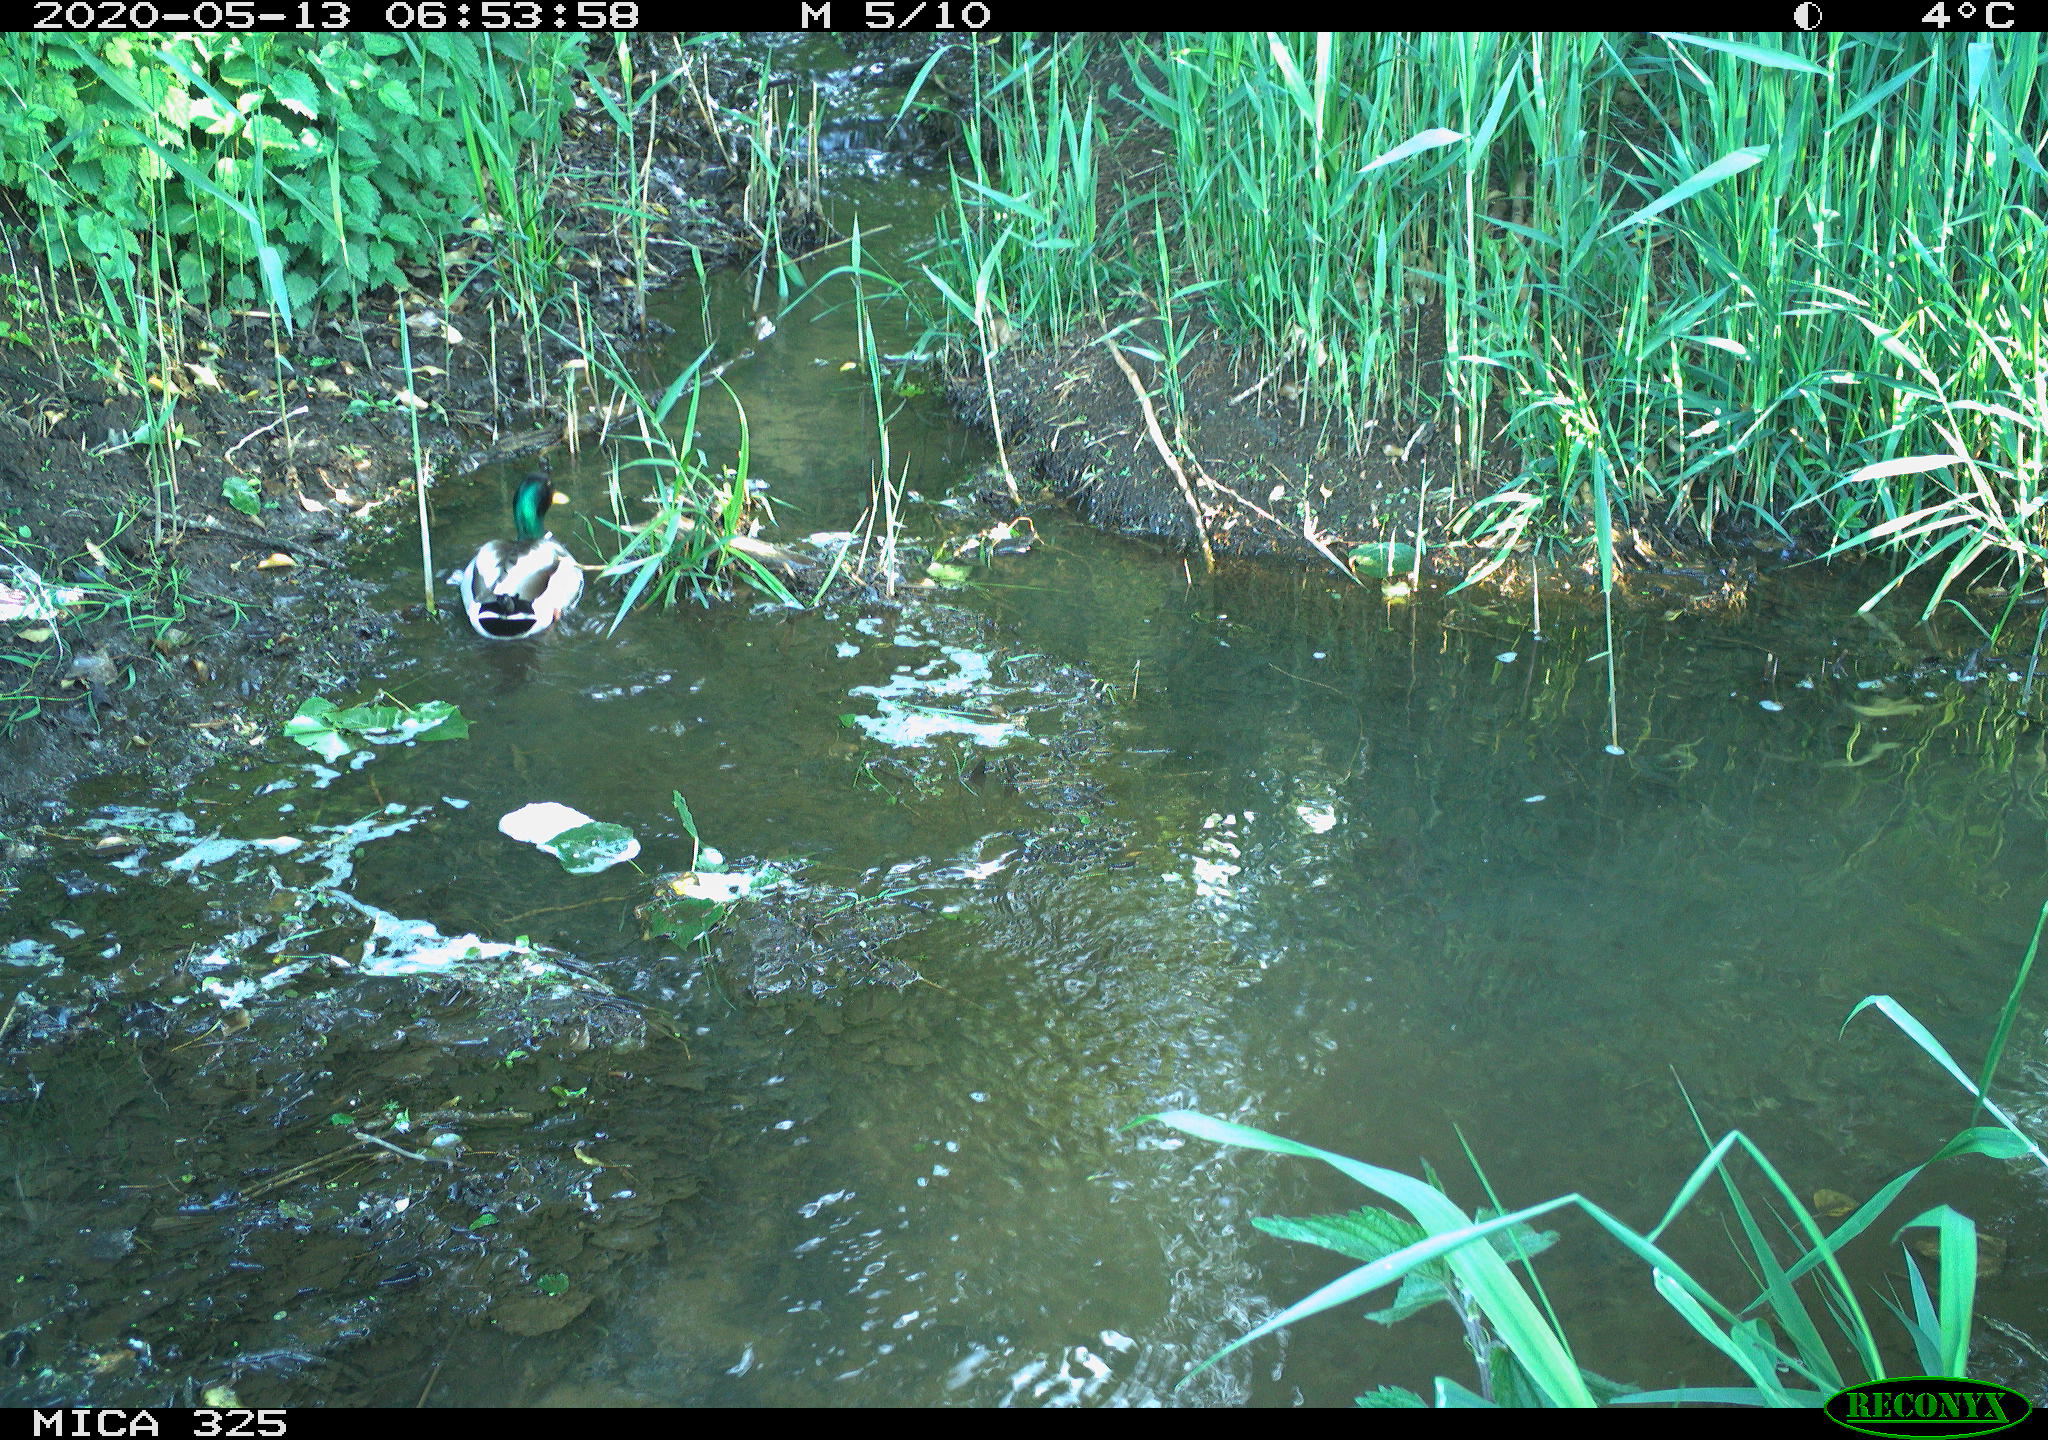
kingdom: Animalia
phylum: Chordata
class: Aves
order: Anseriformes
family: Anatidae
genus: Anas
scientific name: Anas platyrhynchos
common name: Mallard
